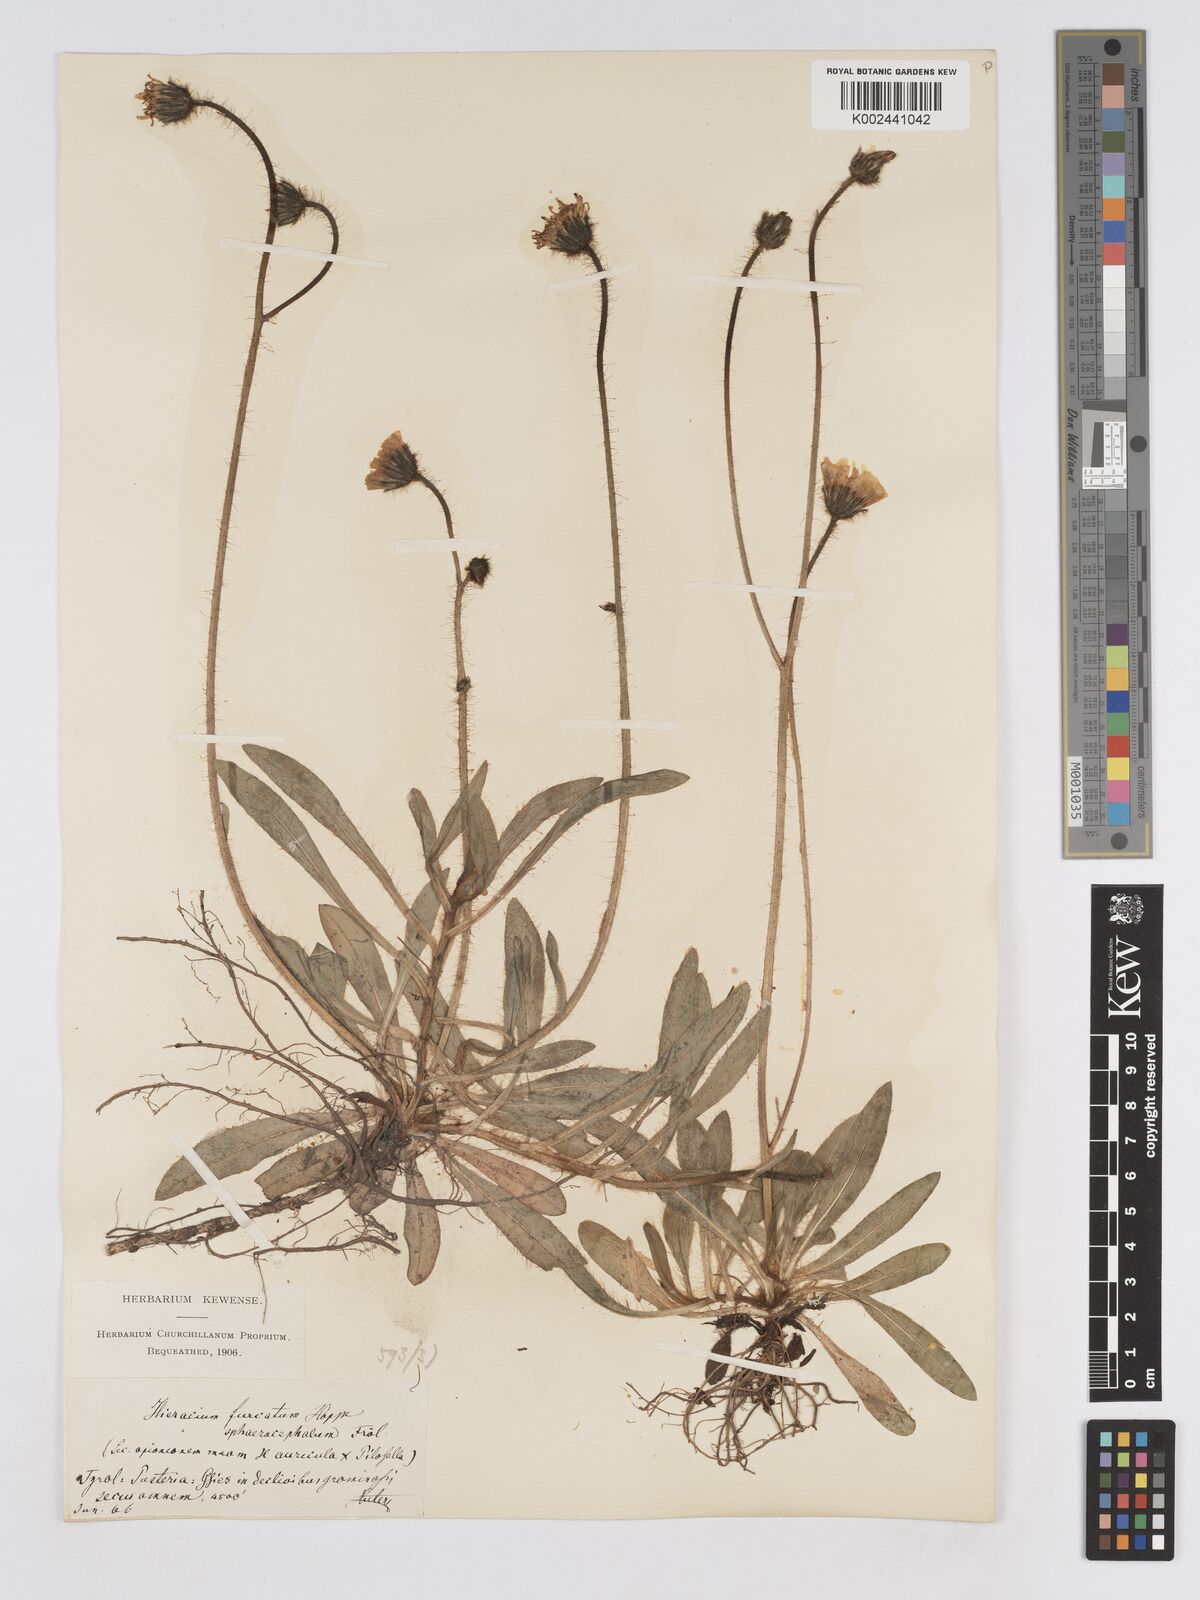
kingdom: Plantae
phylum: Tracheophyta
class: Magnoliopsida
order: Asterales
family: Asteraceae
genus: Pilosella
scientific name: Pilosella sphaerocephala
